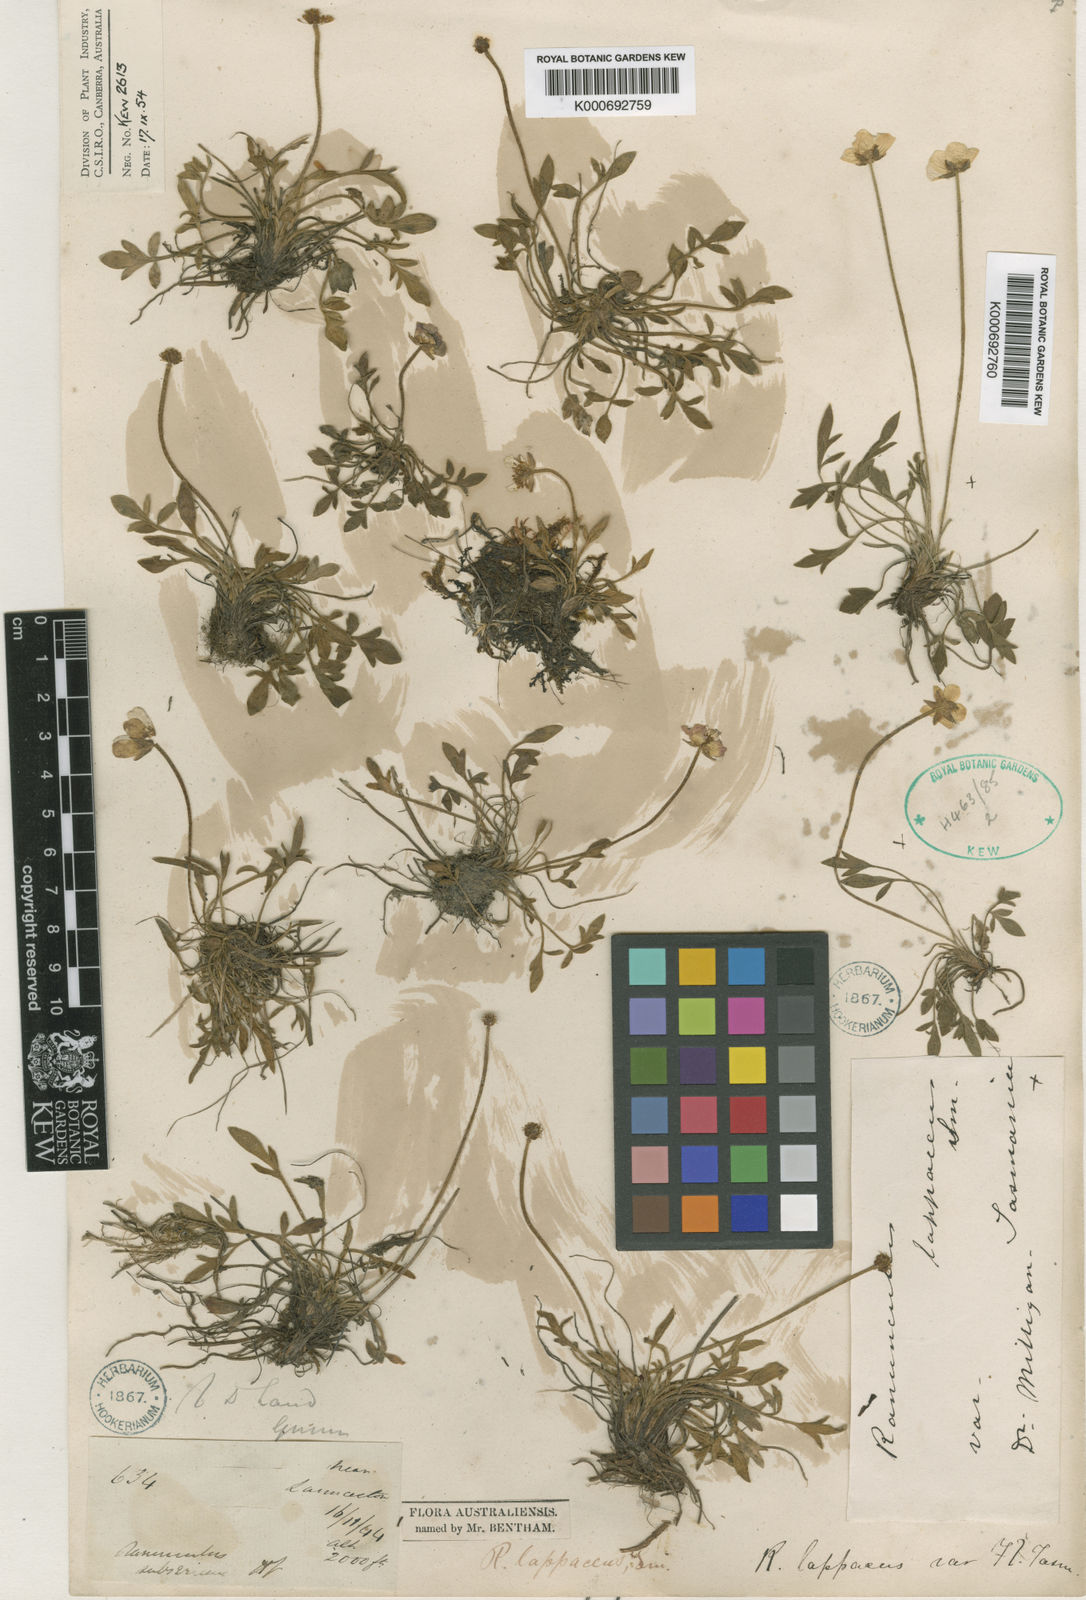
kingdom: Plantae
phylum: Tracheophyta
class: Magnoliopsida
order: Ranunculales
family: Ranunculaceae
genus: Ranunculus
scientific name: Ranunculus lappaceus
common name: Australian buttercup
